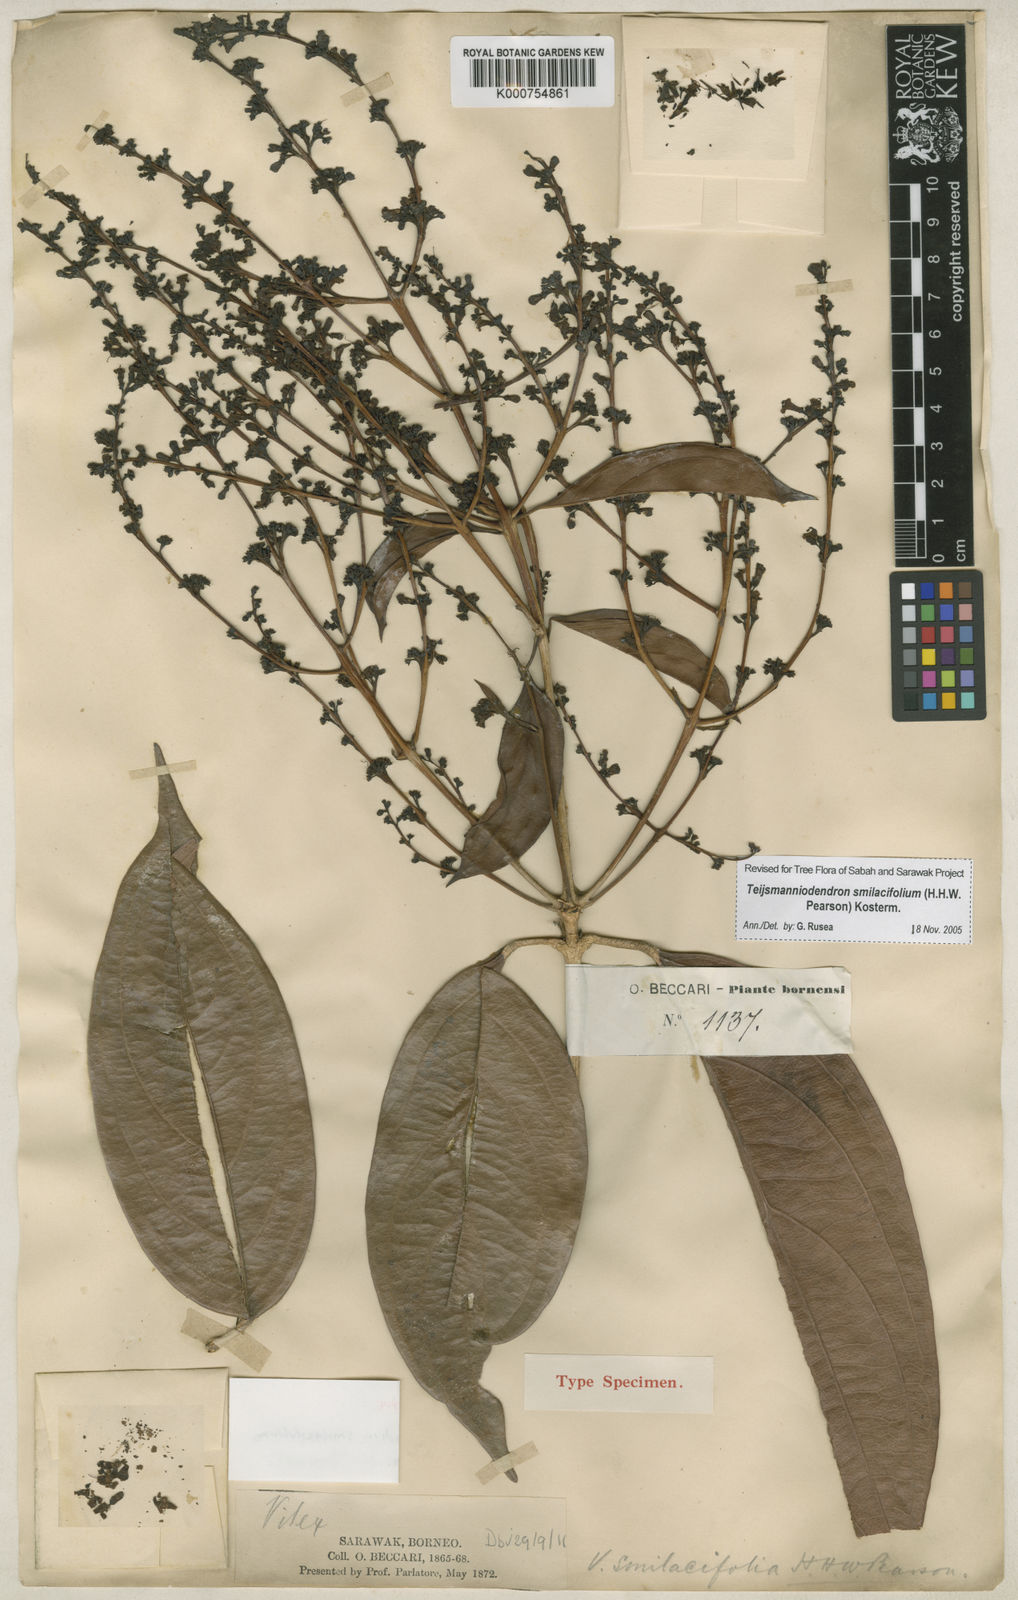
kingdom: Plantae
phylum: Tracheophyta
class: Magnoliopsida
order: Lamiales
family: Lamiaceae
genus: Teijsmanniodendron
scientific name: Teijsmanniodendron smilacifolium
